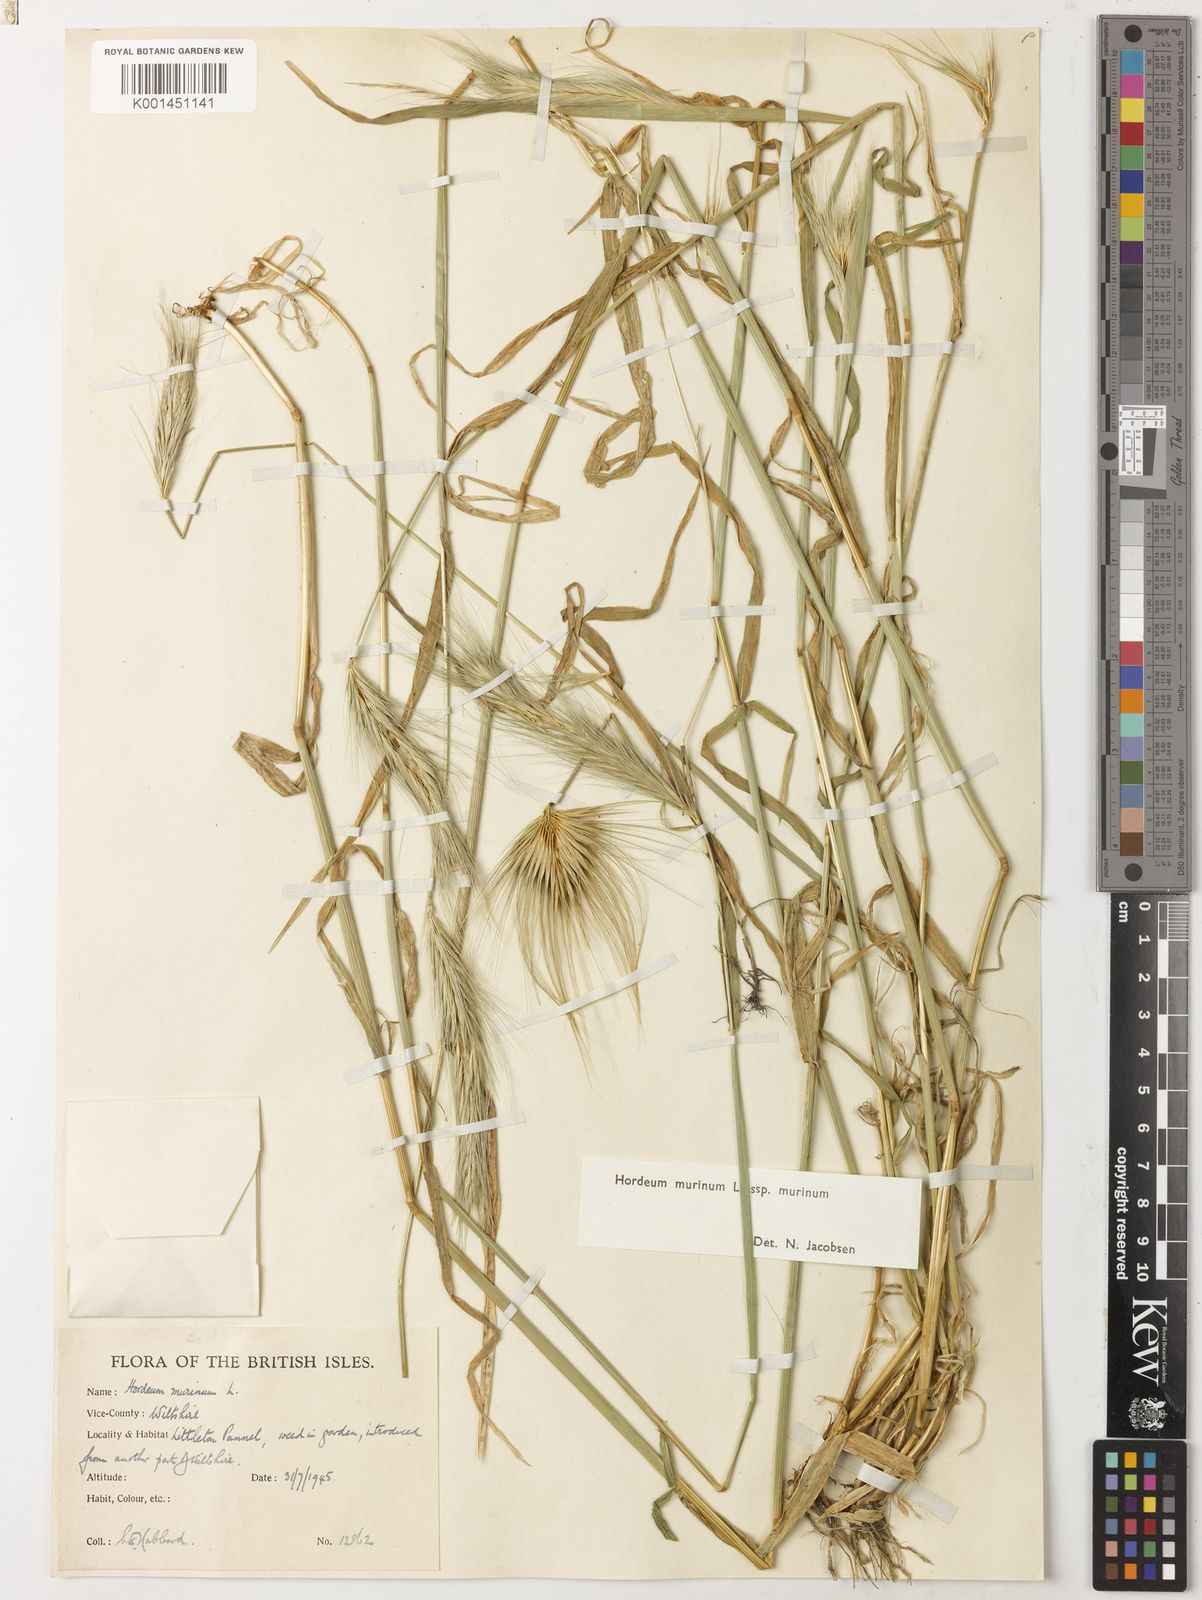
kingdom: Plantae
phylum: Tracheophyta
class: Liliopsida
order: Poales
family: Poaceae
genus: Hordeum
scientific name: Hordeum murinum
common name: Wall barley
